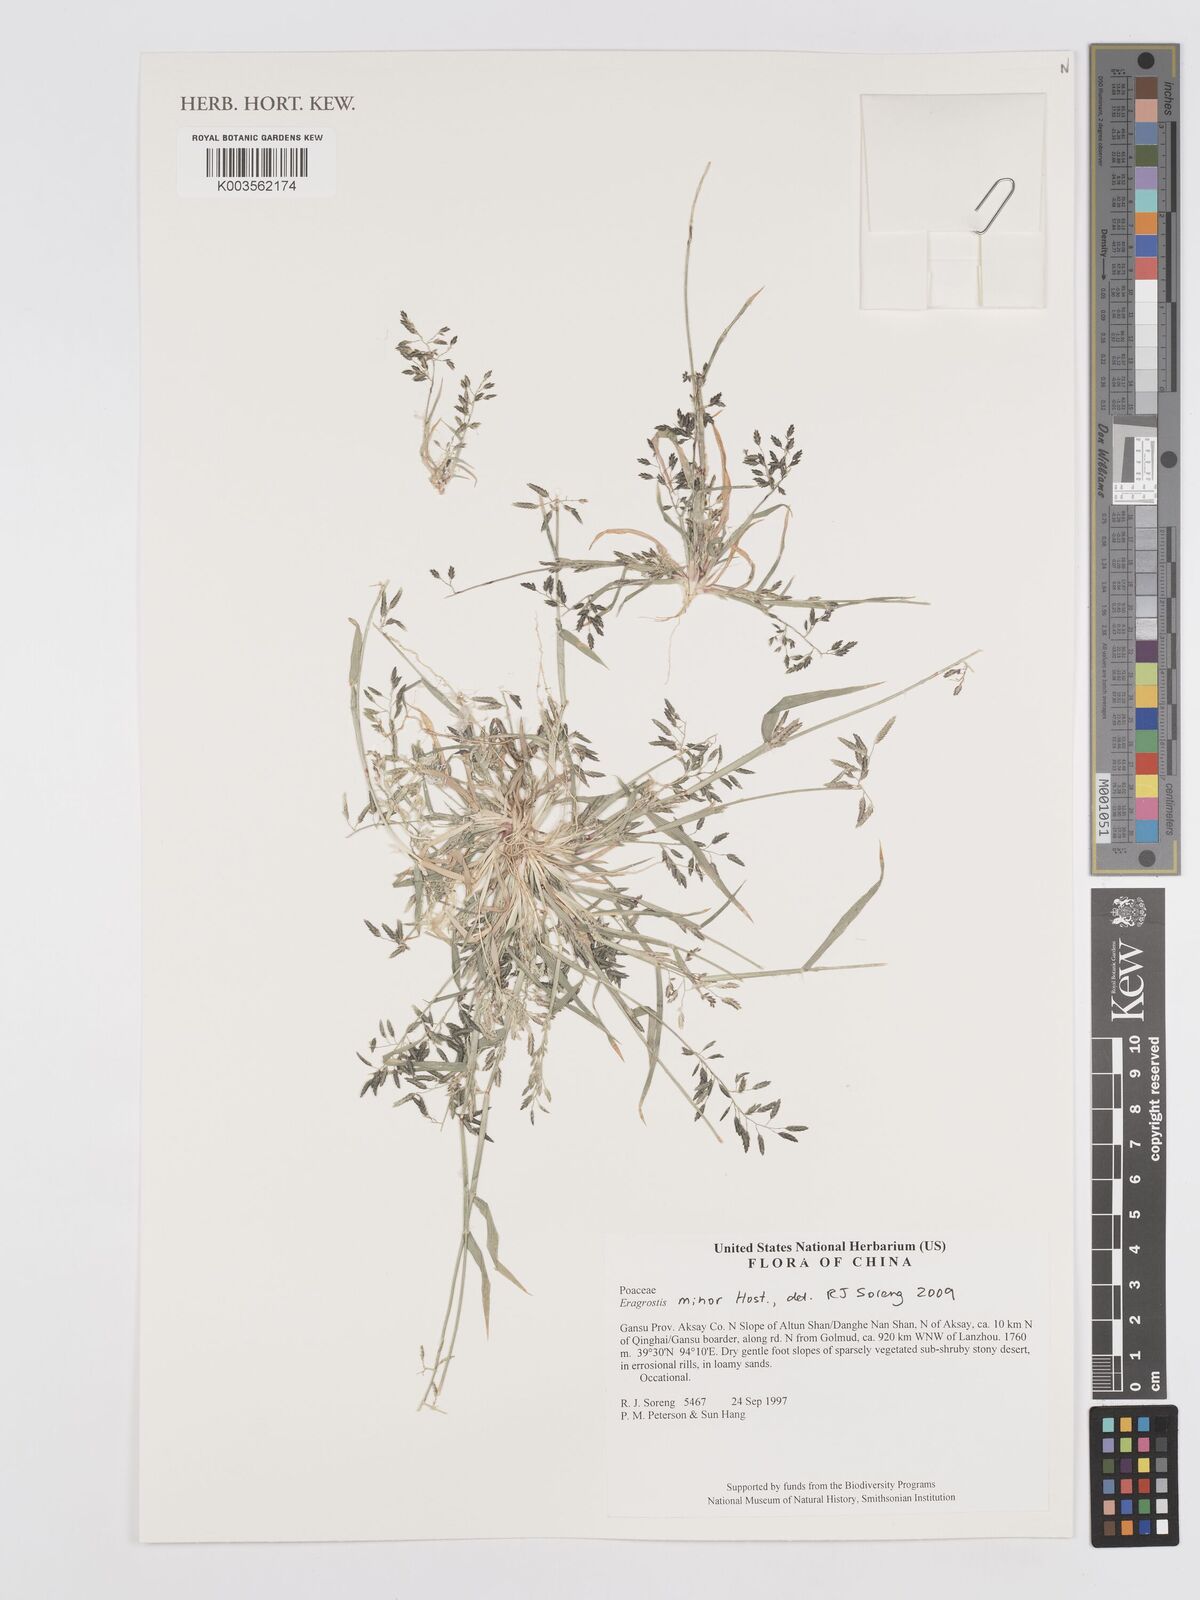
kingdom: Plantae
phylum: Tracheophyta
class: Liliopsida
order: Poales
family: Poaceae
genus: Eragrostis
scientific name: Eragrostis minor
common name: Small love-grass
